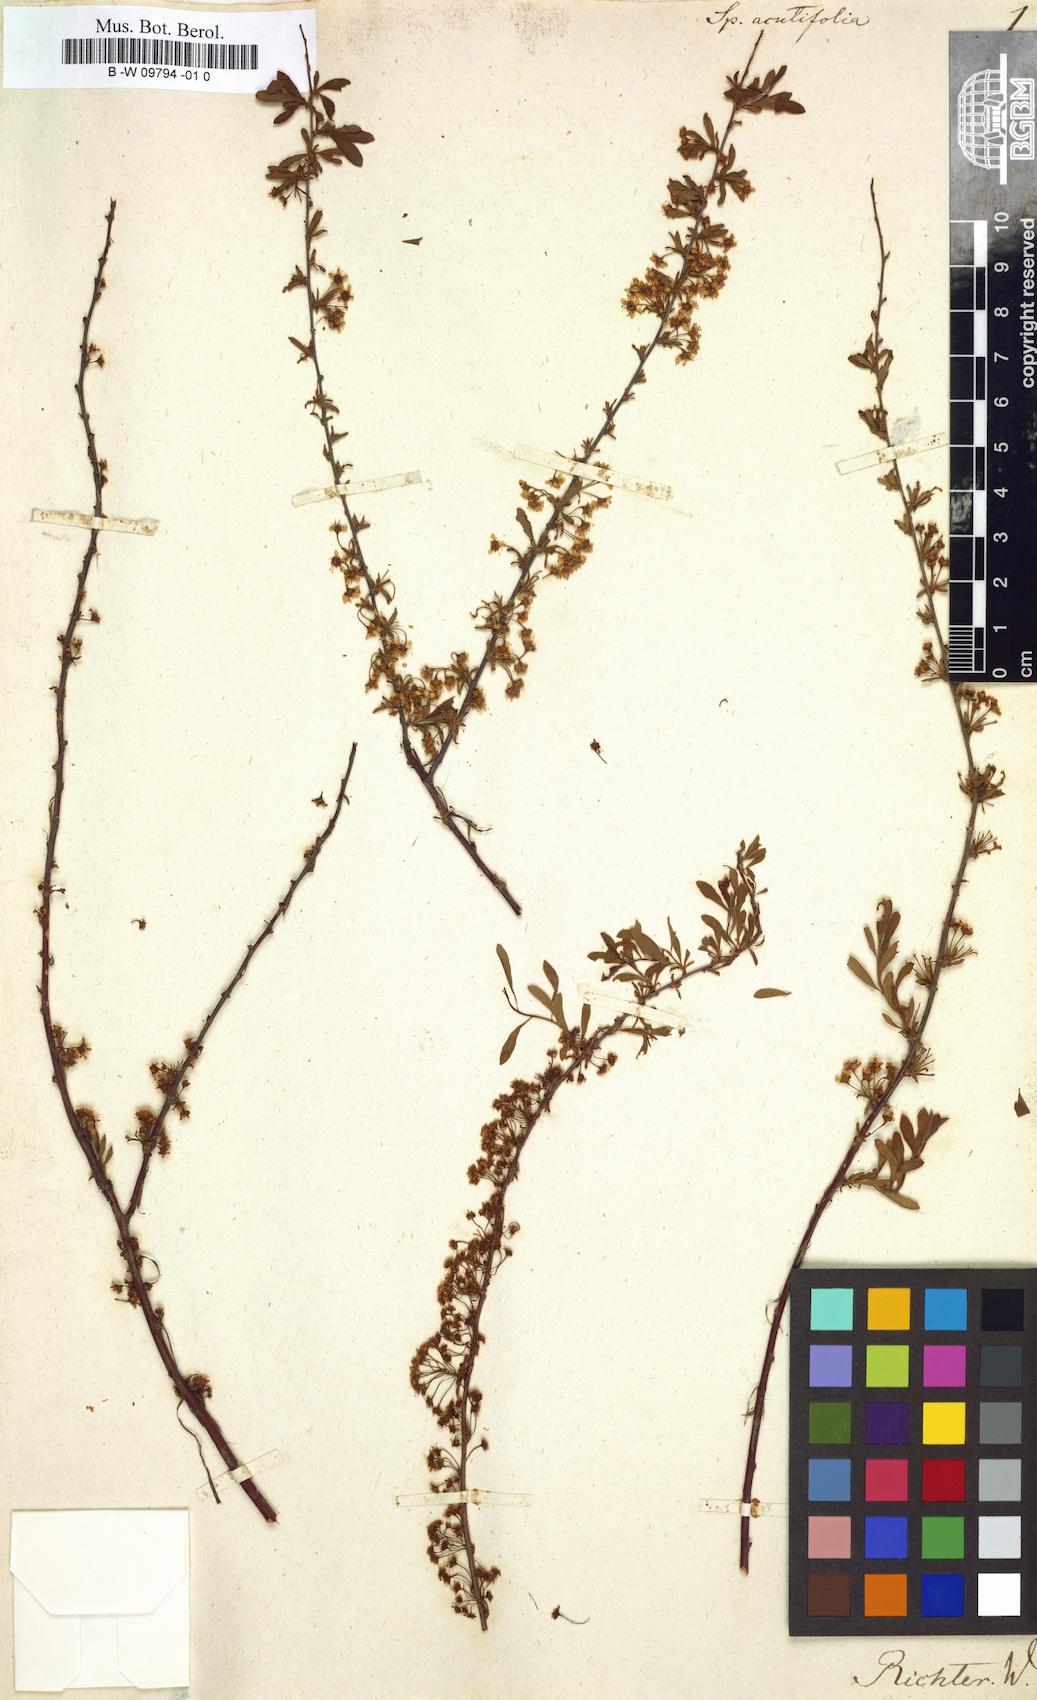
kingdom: Plantae
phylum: Tracheophyta
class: Magnoliopsida
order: Rosales
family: Rosaceae
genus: Spiraea
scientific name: Spiraea hypericifolia
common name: Iberian spirea
